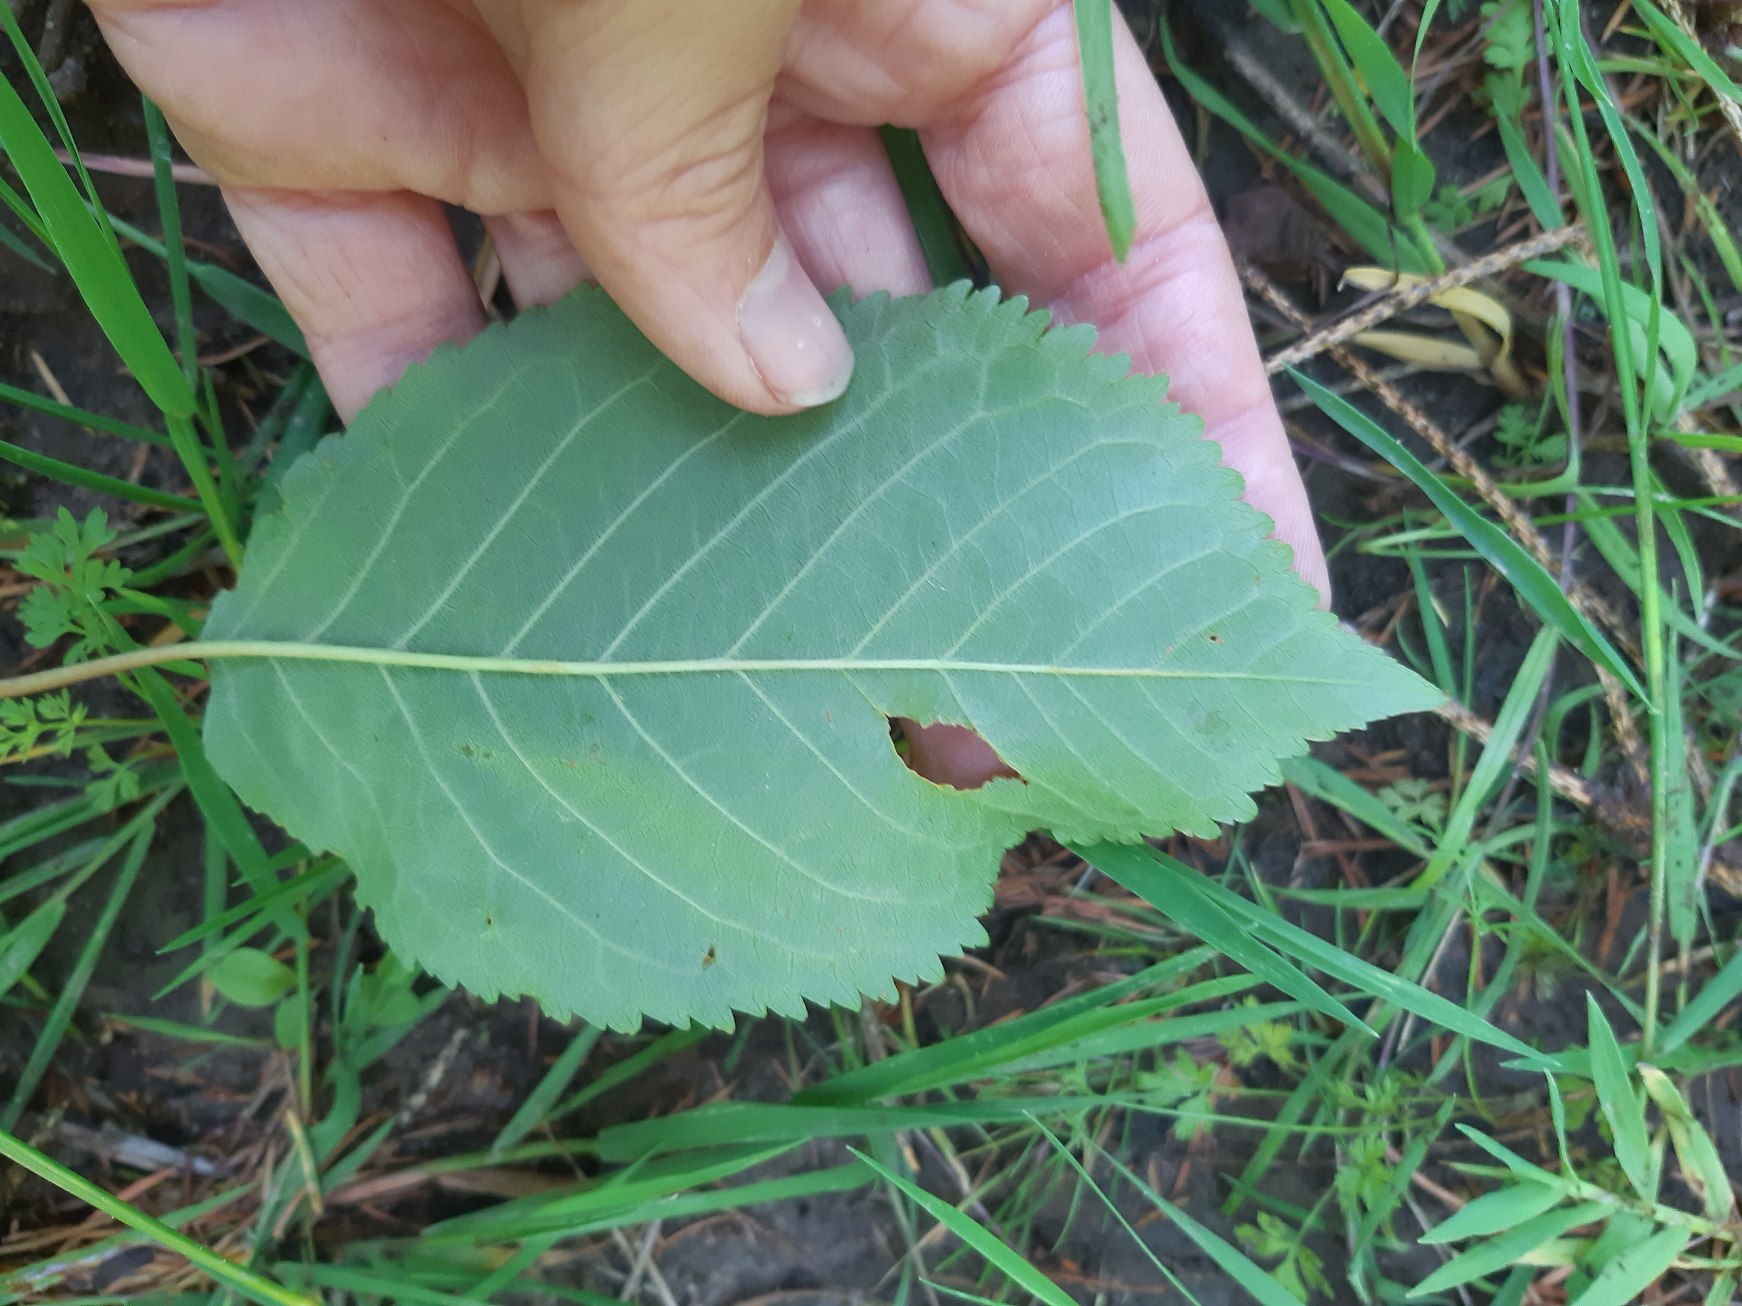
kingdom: Plantae
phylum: Tracheophyta
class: Magnoliopsida
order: Rosales
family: Rosaceae
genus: Prunus
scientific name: Prunus avium
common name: Fugle-kirsebær
